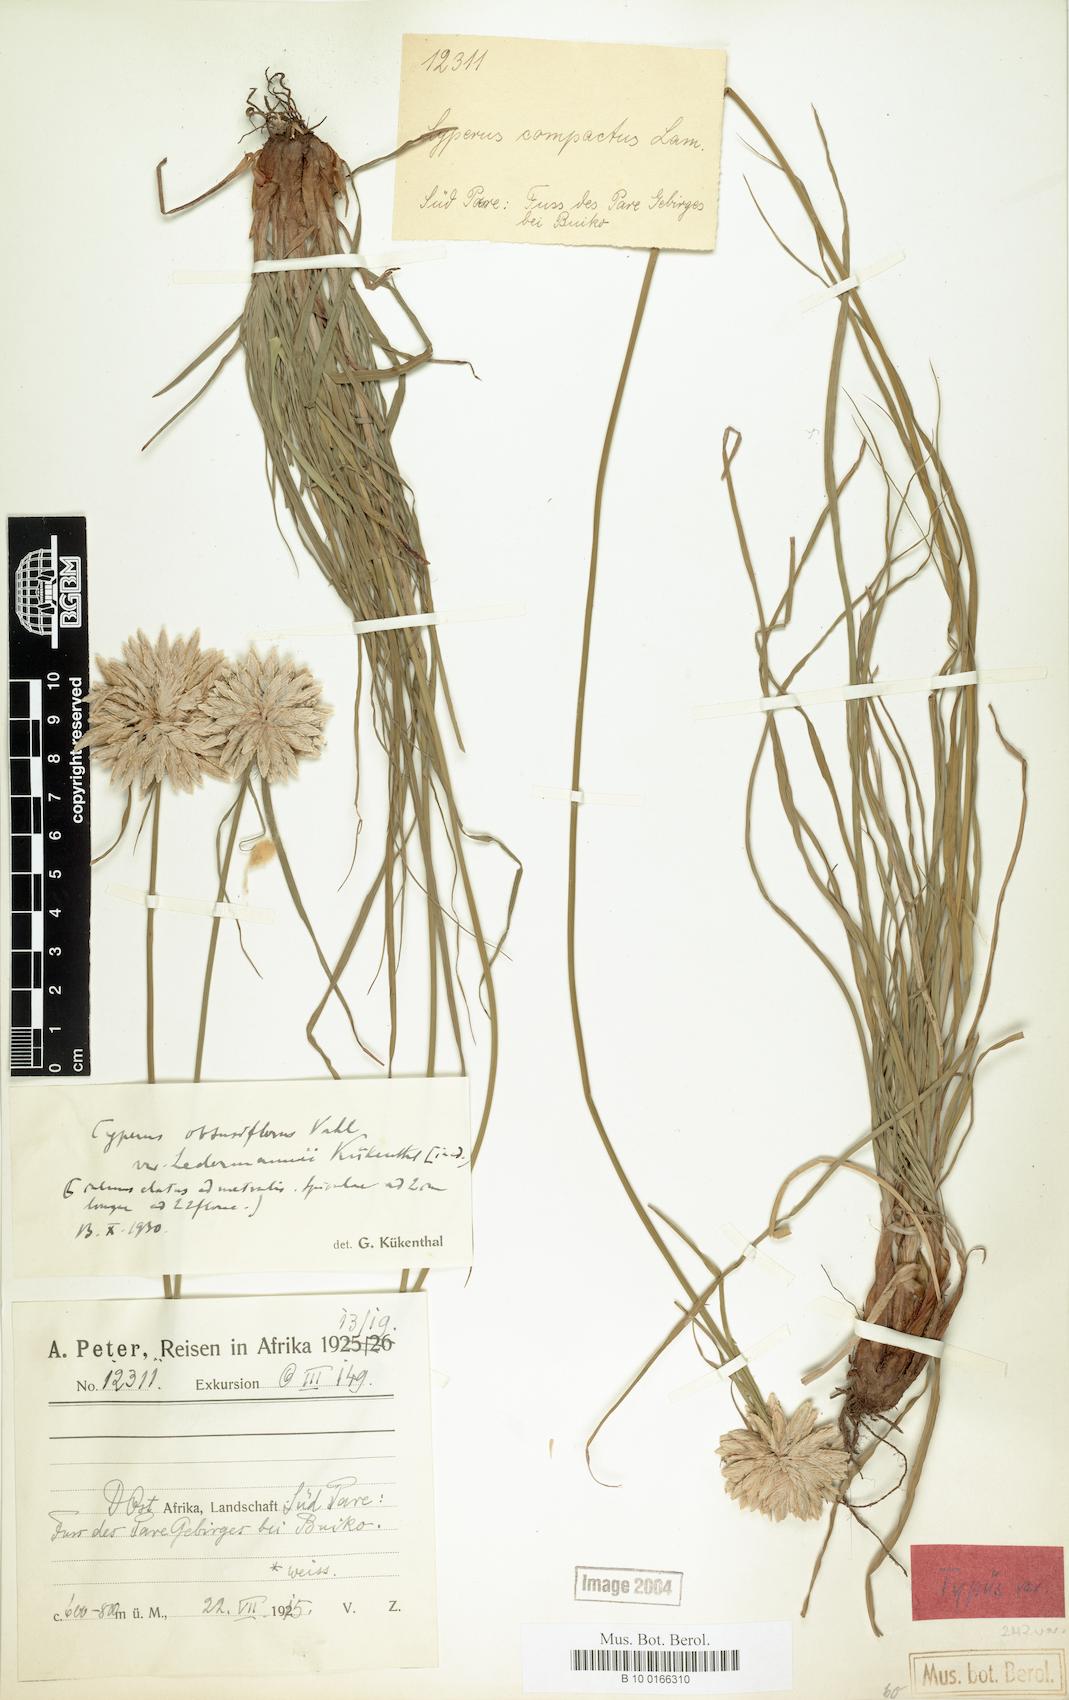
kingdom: Plantae
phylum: Tracheophyta
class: Liliopsida
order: Poales
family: Cyperaceae
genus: Cyperus
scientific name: Cyperus niveus
